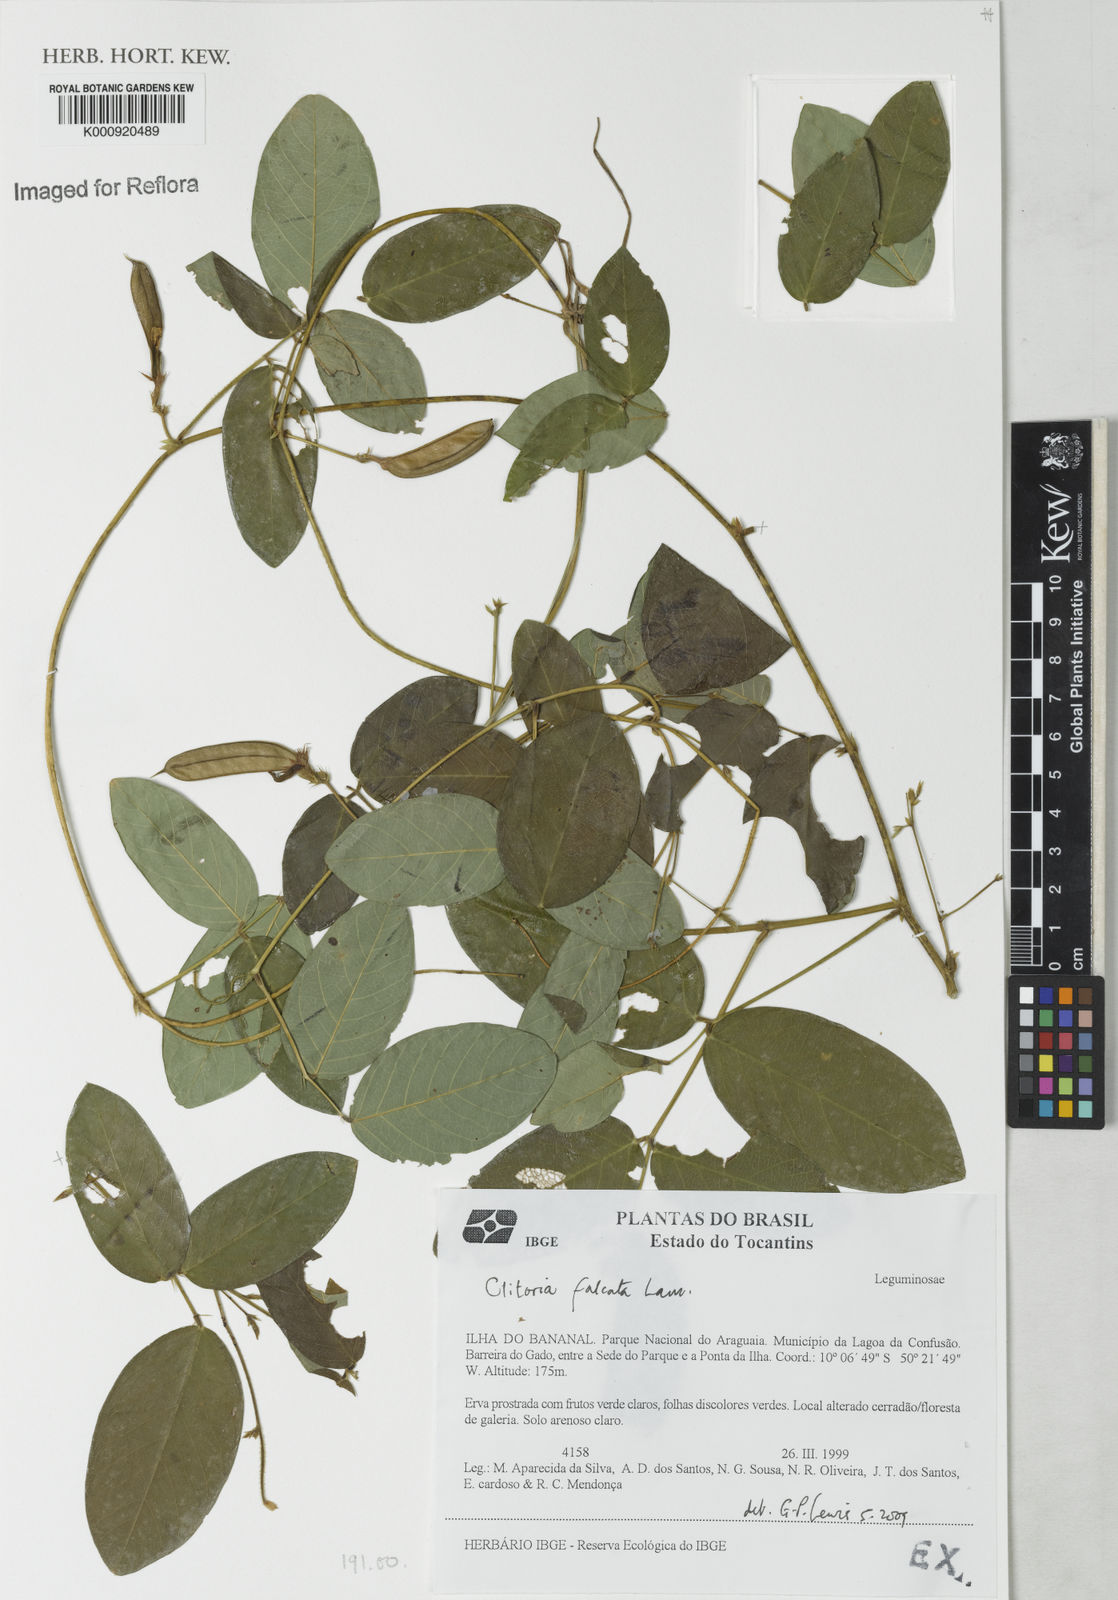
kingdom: Plantae
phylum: Tracheophyta
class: Magnoliopsida
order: Fabales
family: Fabaceae
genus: Clitoria
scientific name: Clitoria
